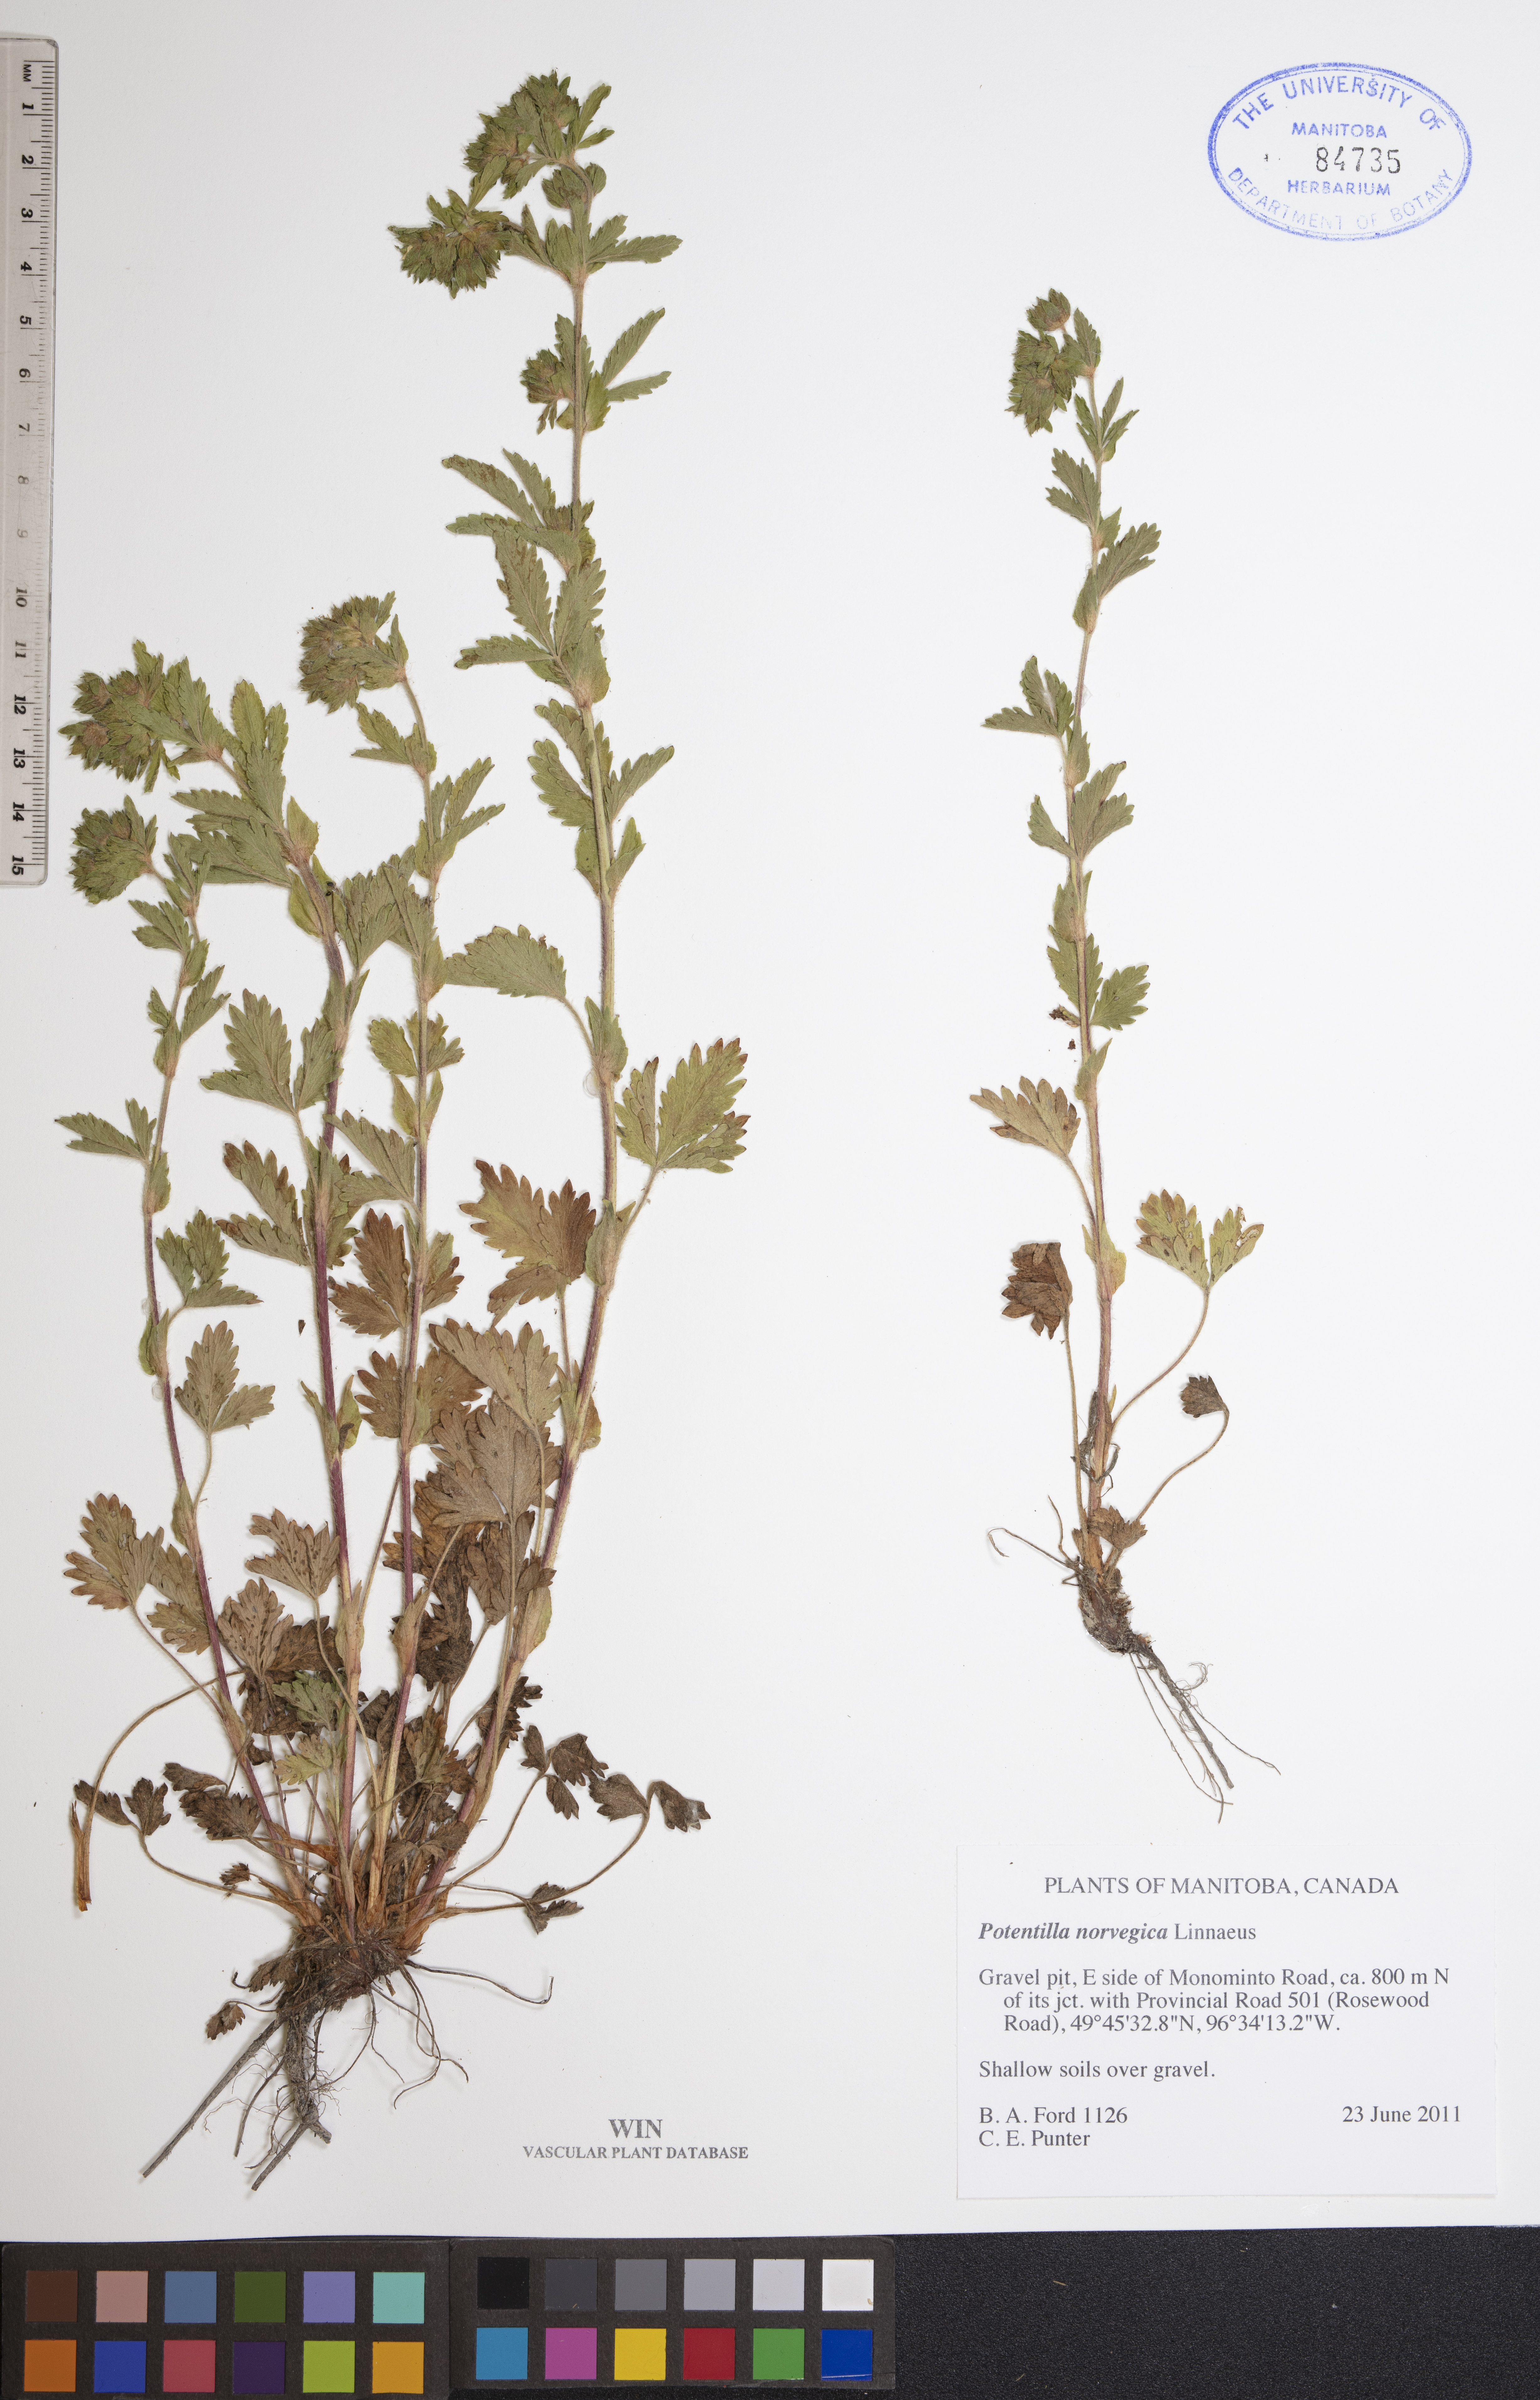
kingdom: Plantae
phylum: Tracheophyta
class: Magnoliopsida
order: Rosales
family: Rosaceae
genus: Potentilla
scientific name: Potentilla norvegica
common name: Ternate-leaved cinquefoil
